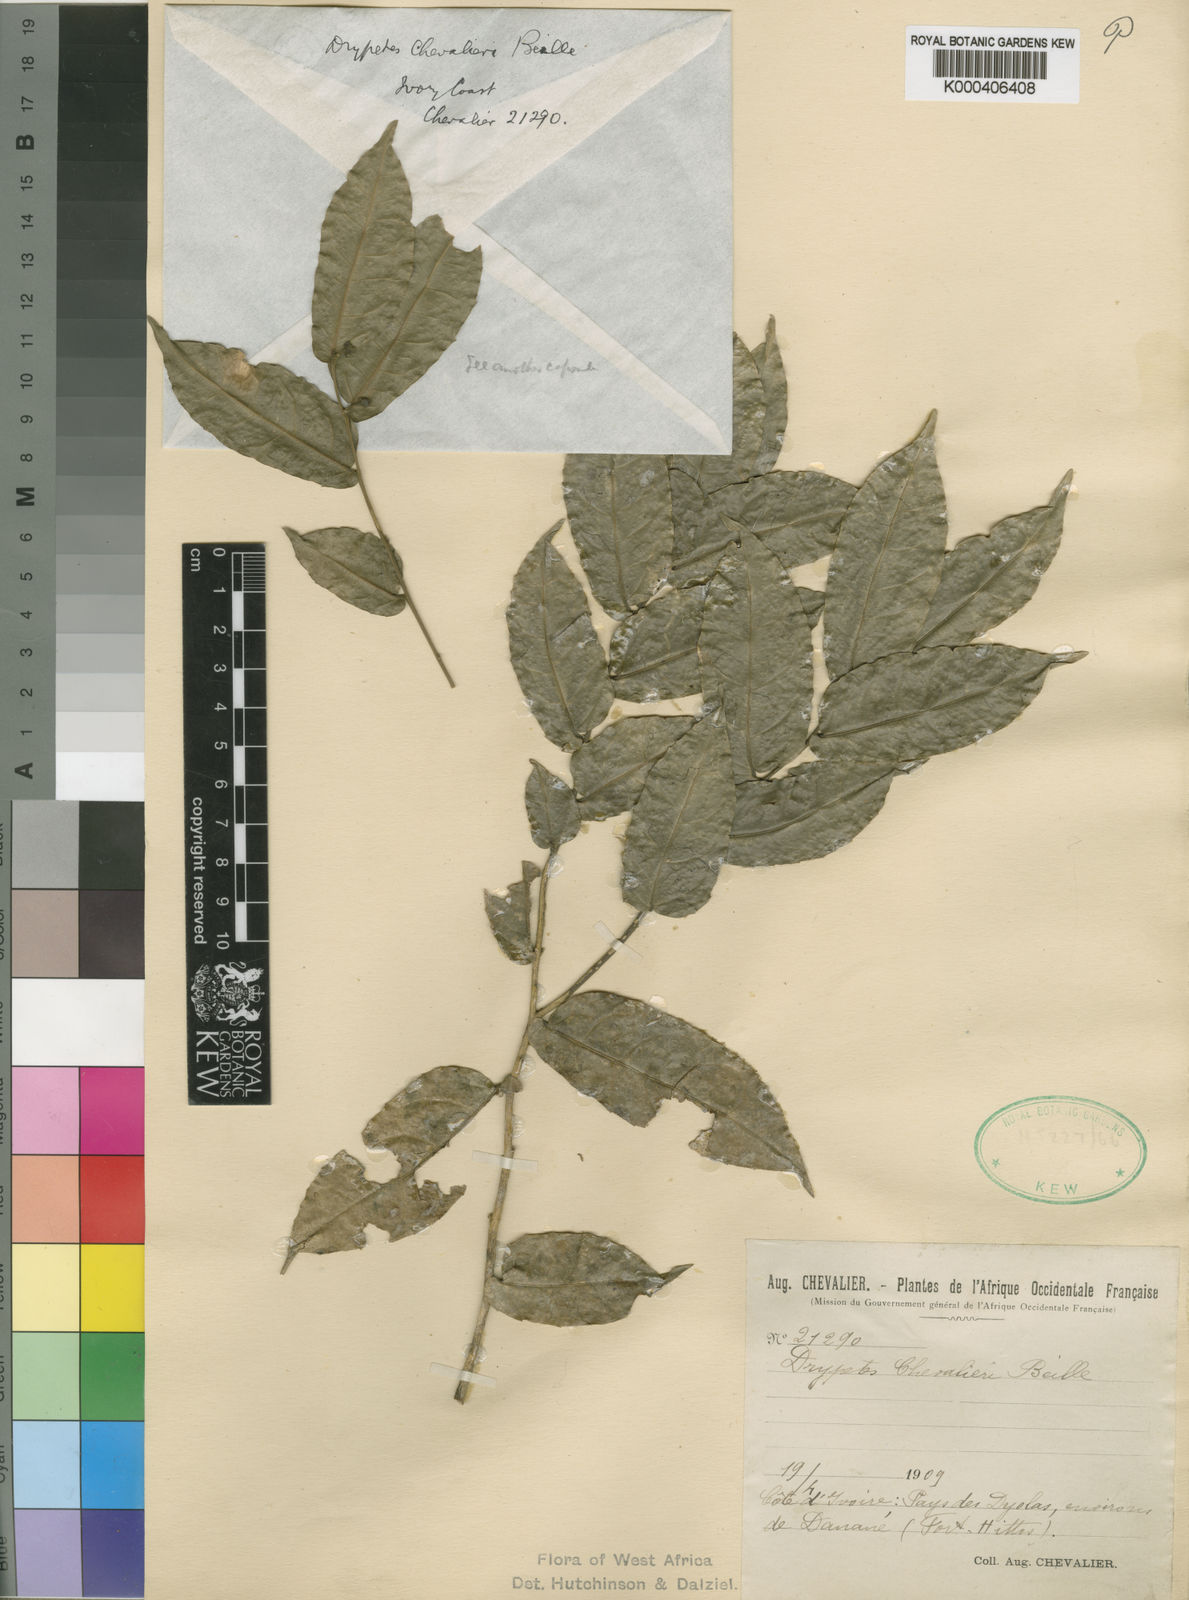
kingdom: Plantae
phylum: Tracheophyta
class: Magnoliopsida
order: Malpighiales
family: Putranjivaceae
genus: Drypetes
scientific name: Drypetes chevalieri
